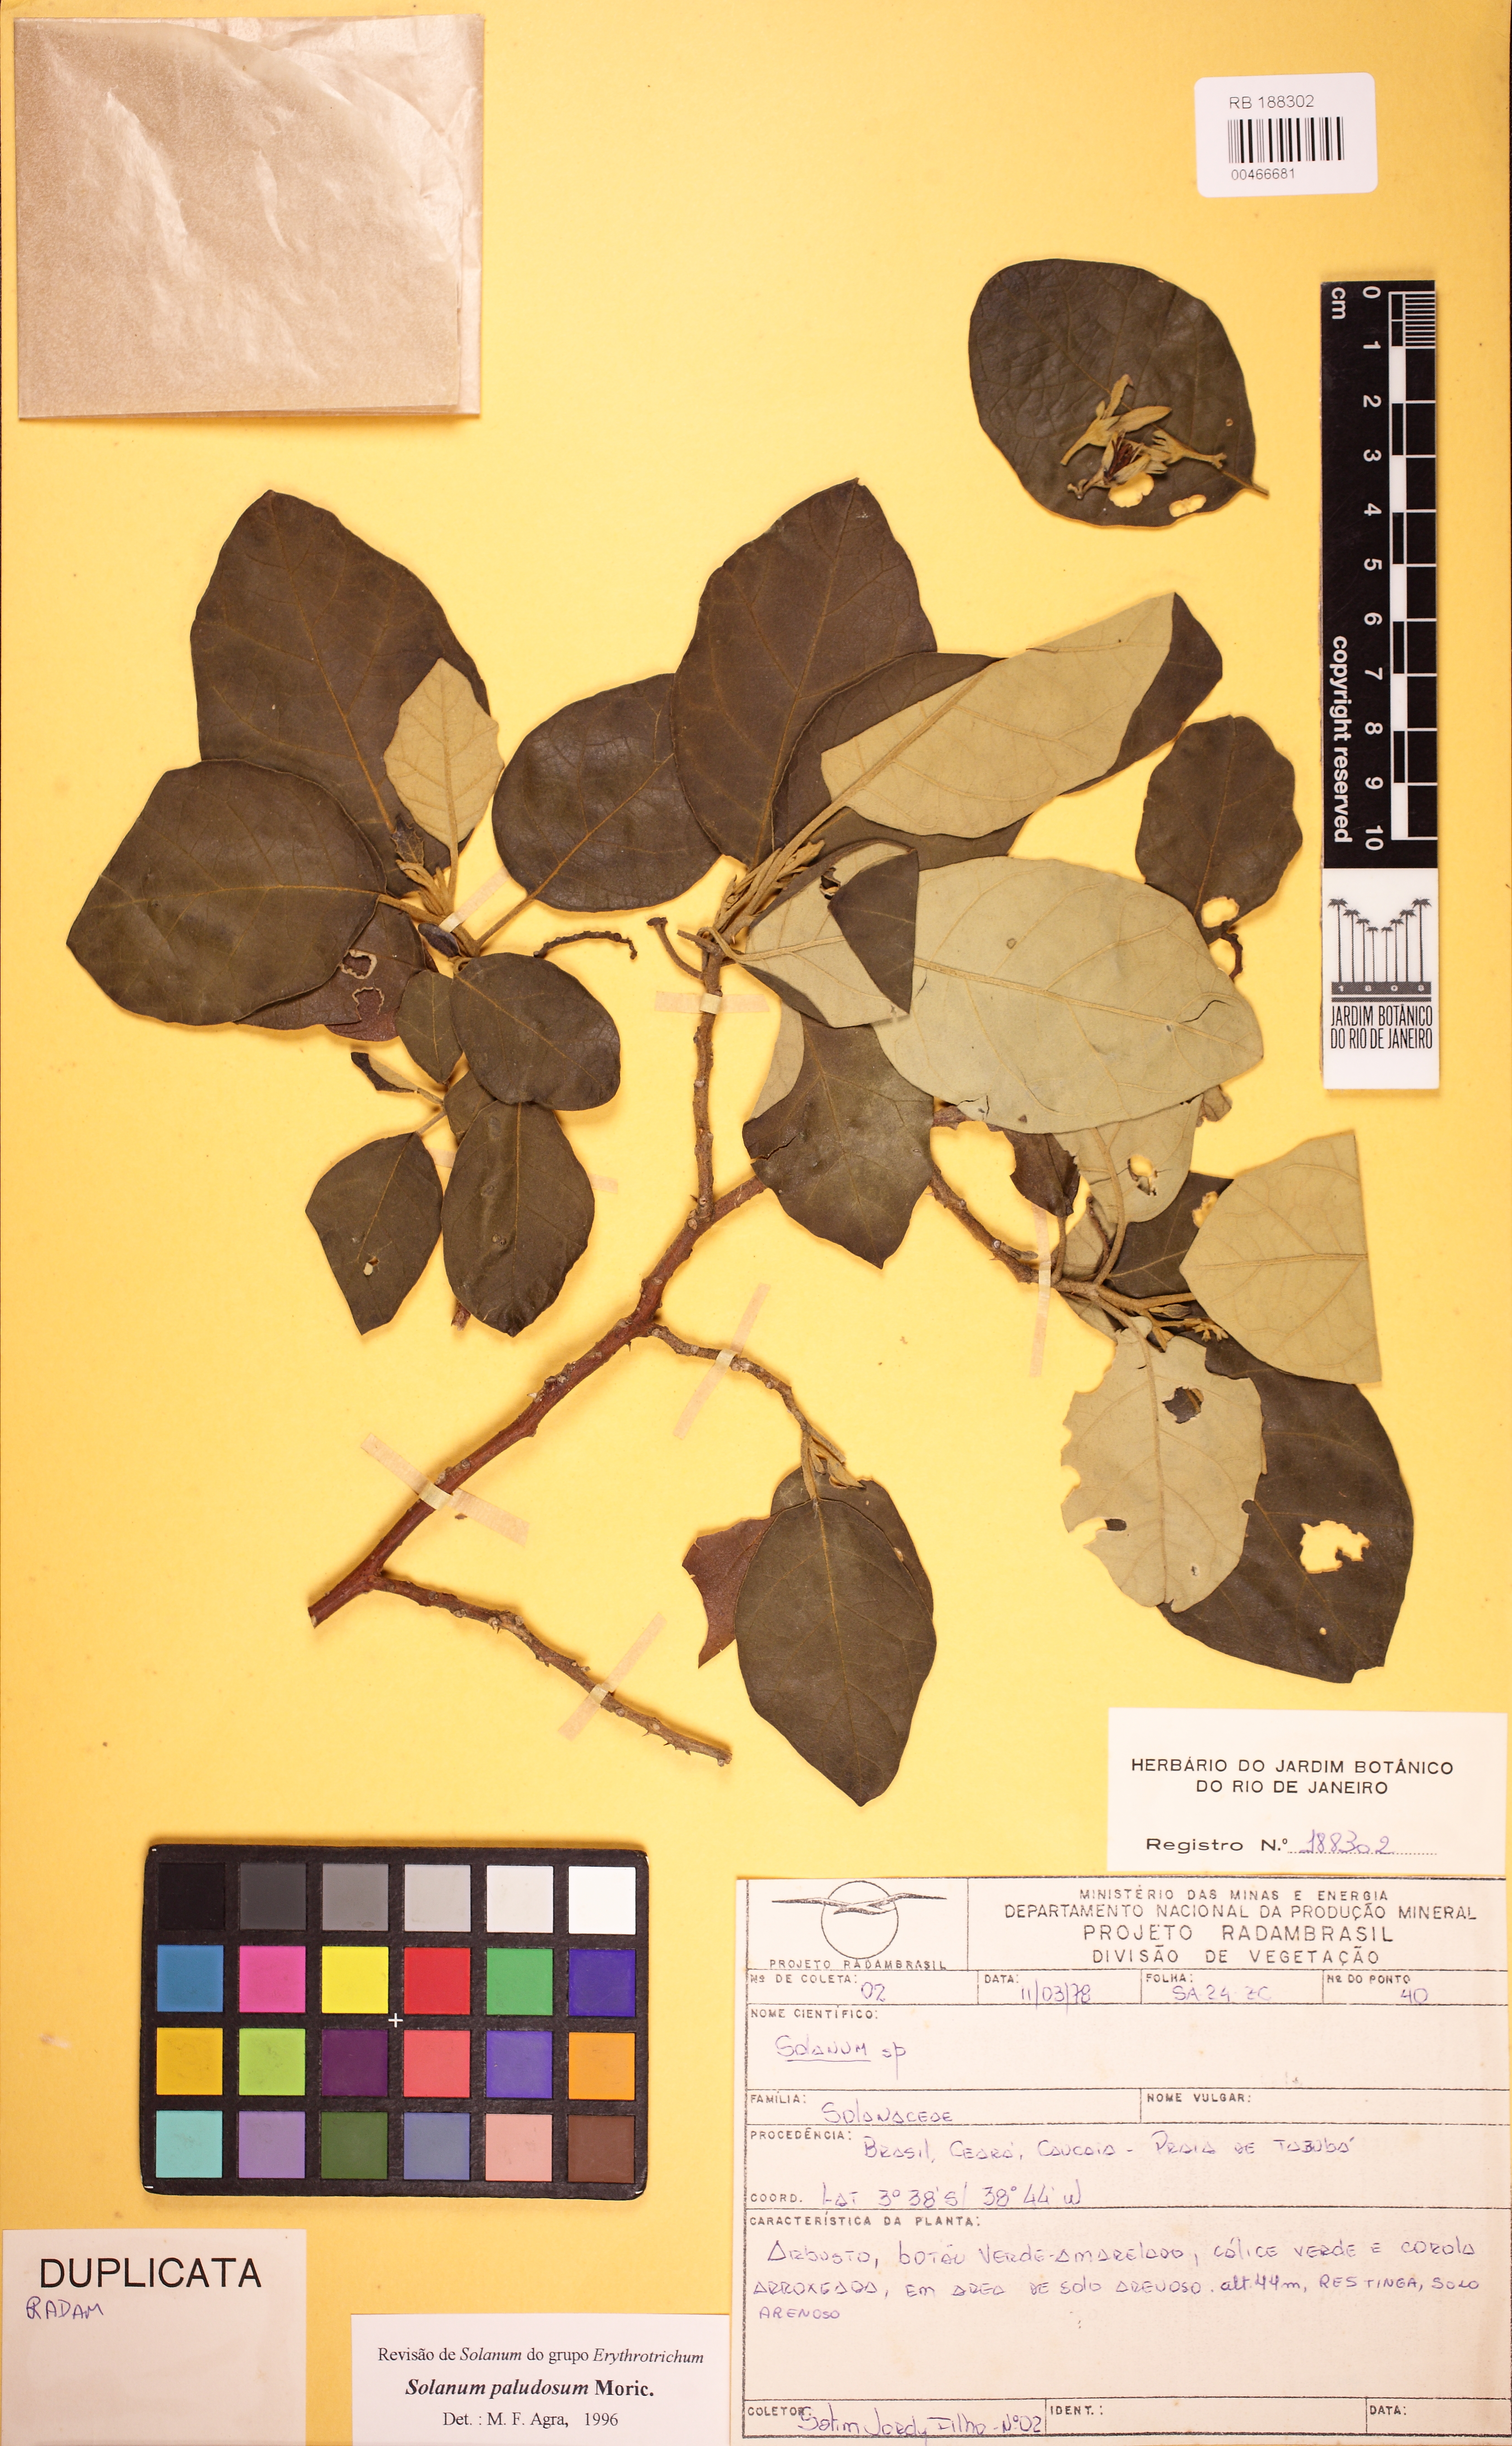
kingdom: Plantae
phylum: Tracheophyta
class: Magnoliopsida
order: Solanales
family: Solanaceae
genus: Solanum
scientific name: Solanum paludosum
